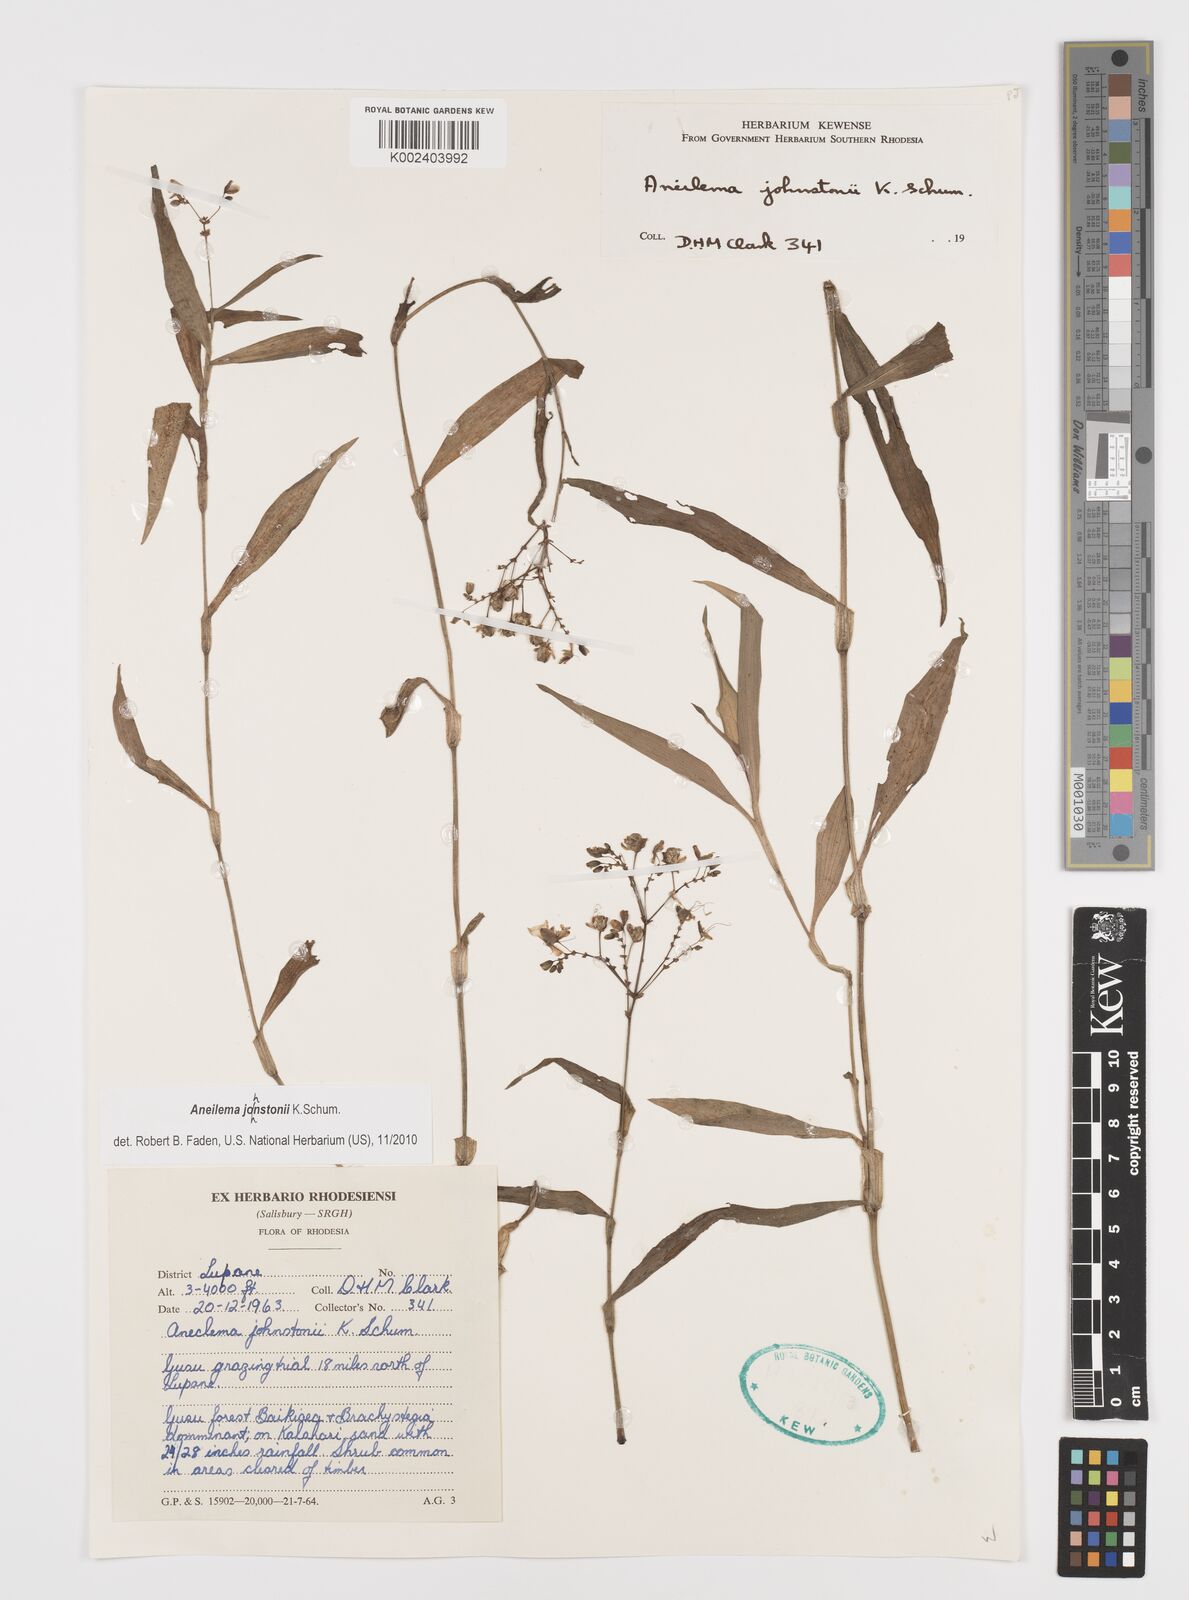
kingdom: Plantae
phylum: Tracheophyta
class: Liliopsida
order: Commelinales
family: Commelinaceae
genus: Aneilema
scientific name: Aneilema johnstonii
